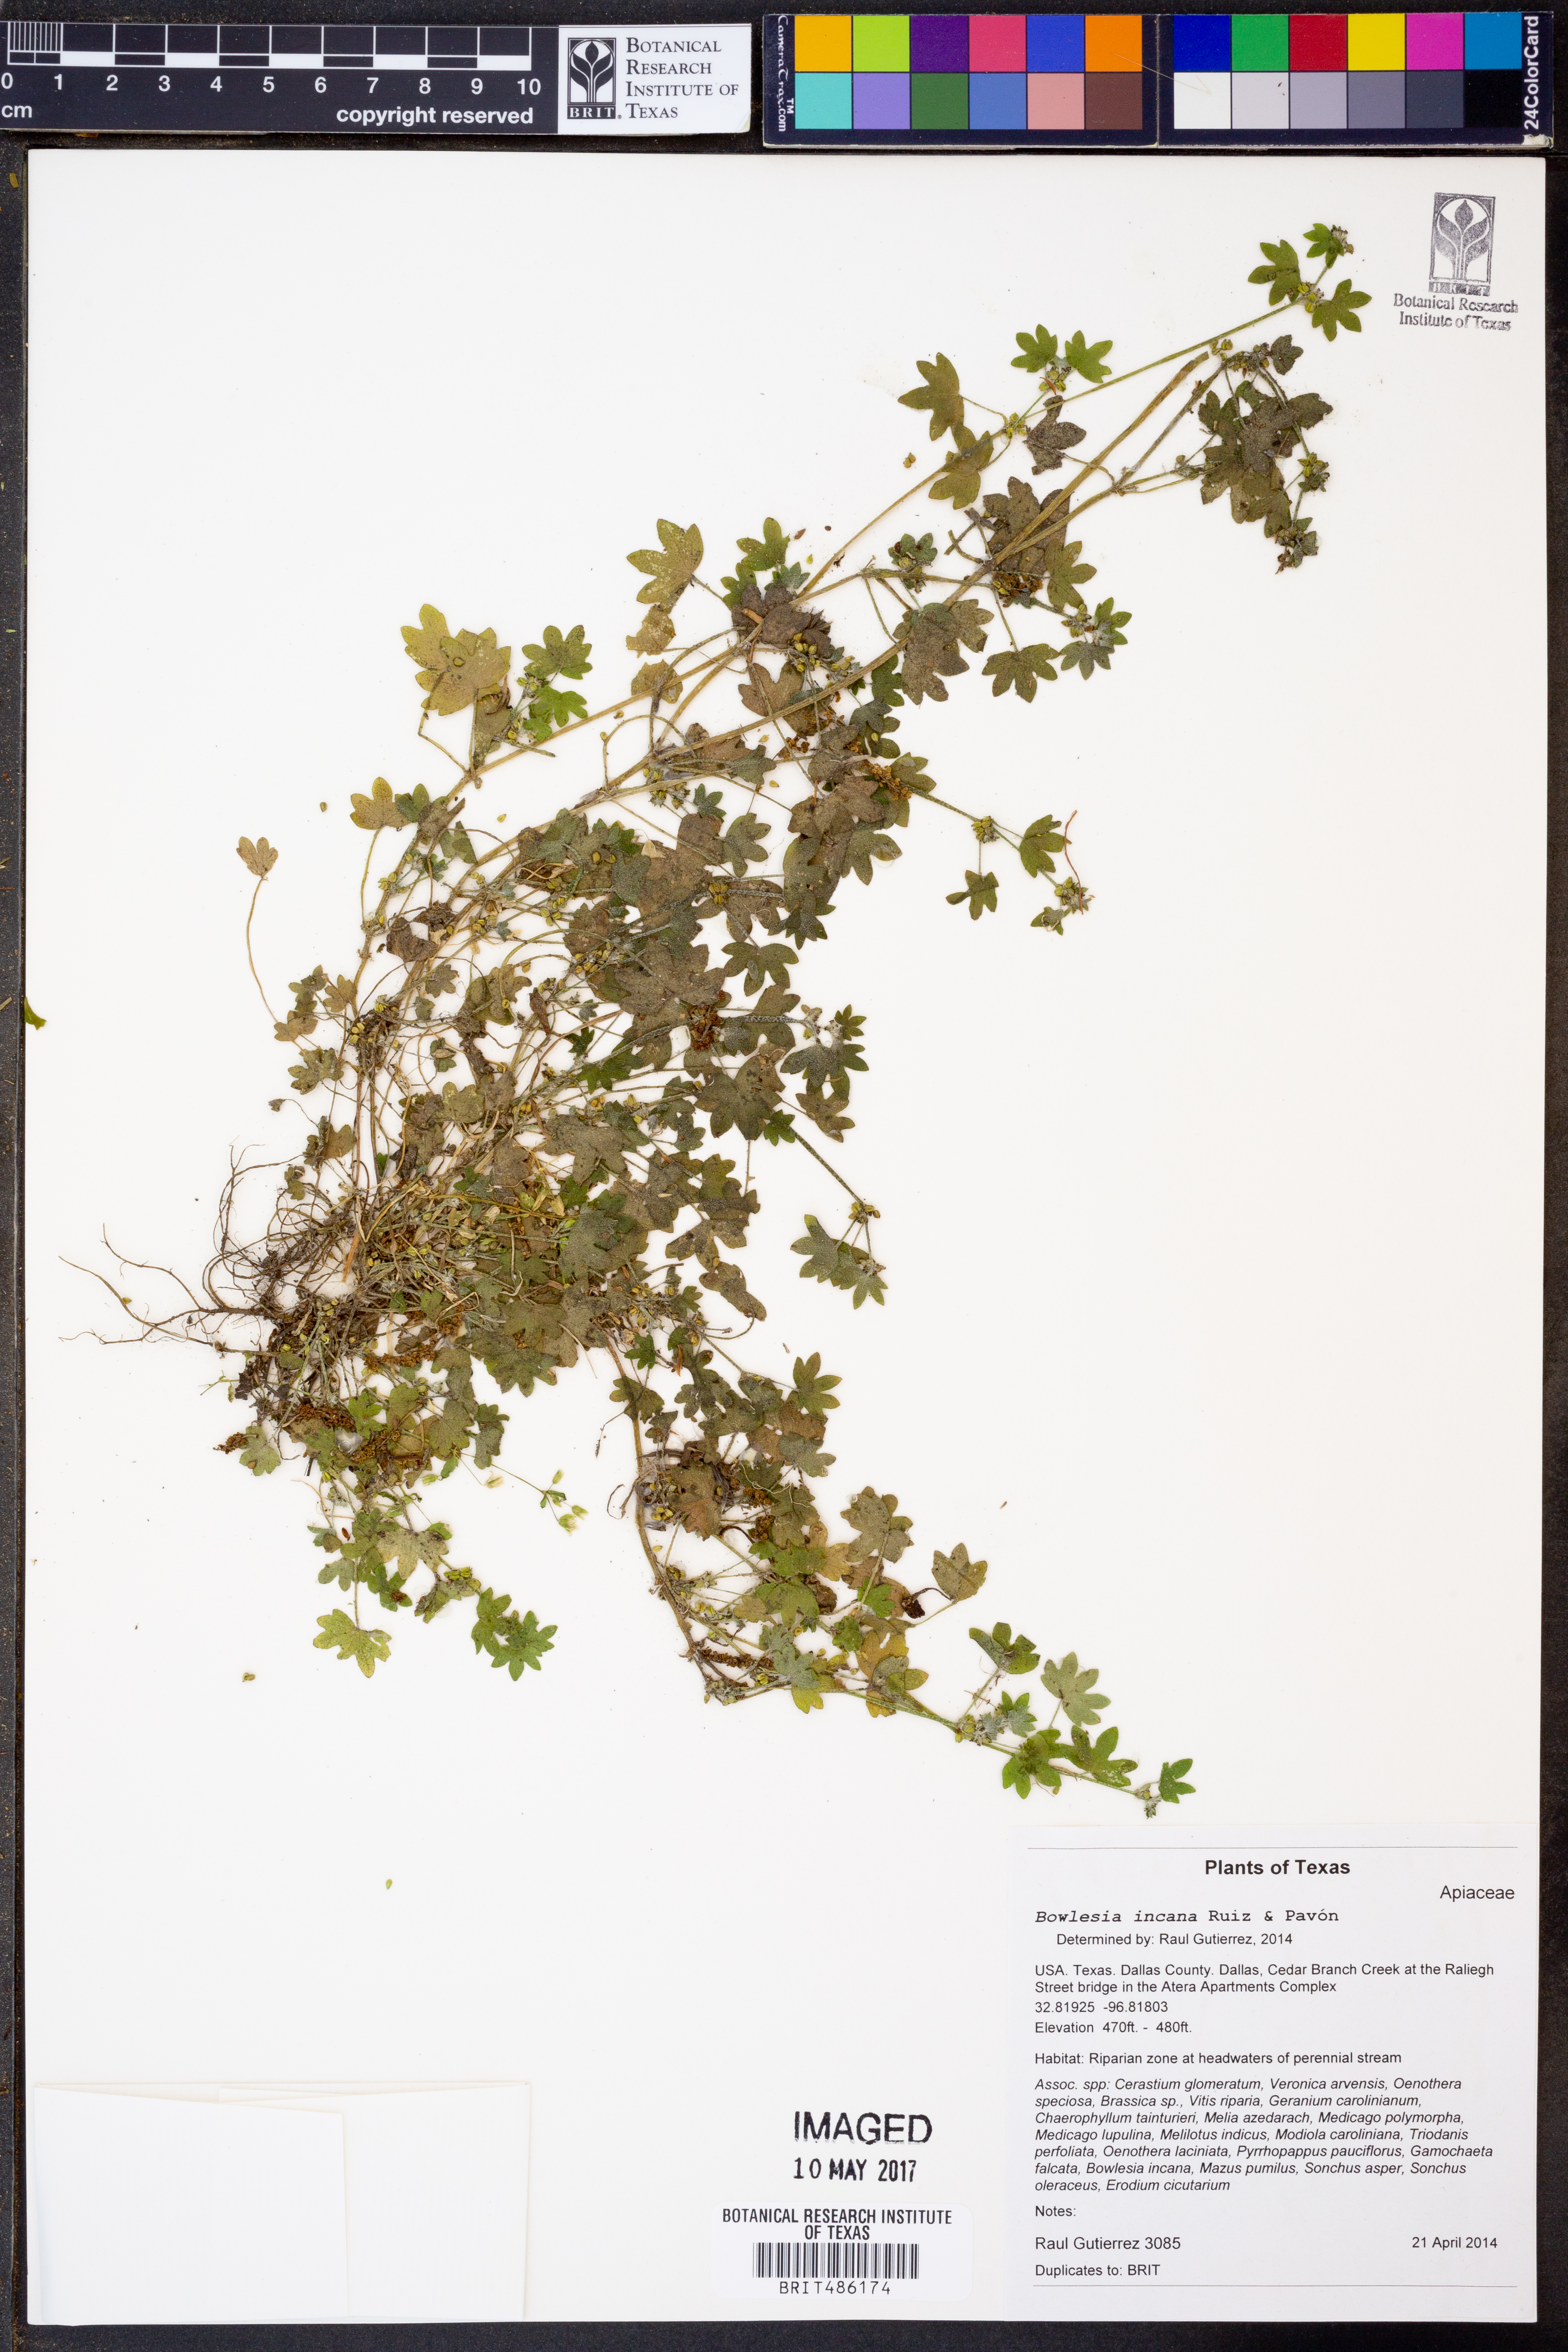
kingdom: Plantae
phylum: Tracheophyta
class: Magnoliopsida
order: Apiales
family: Apiaceae
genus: Bowlesia
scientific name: Bowlesia incana
